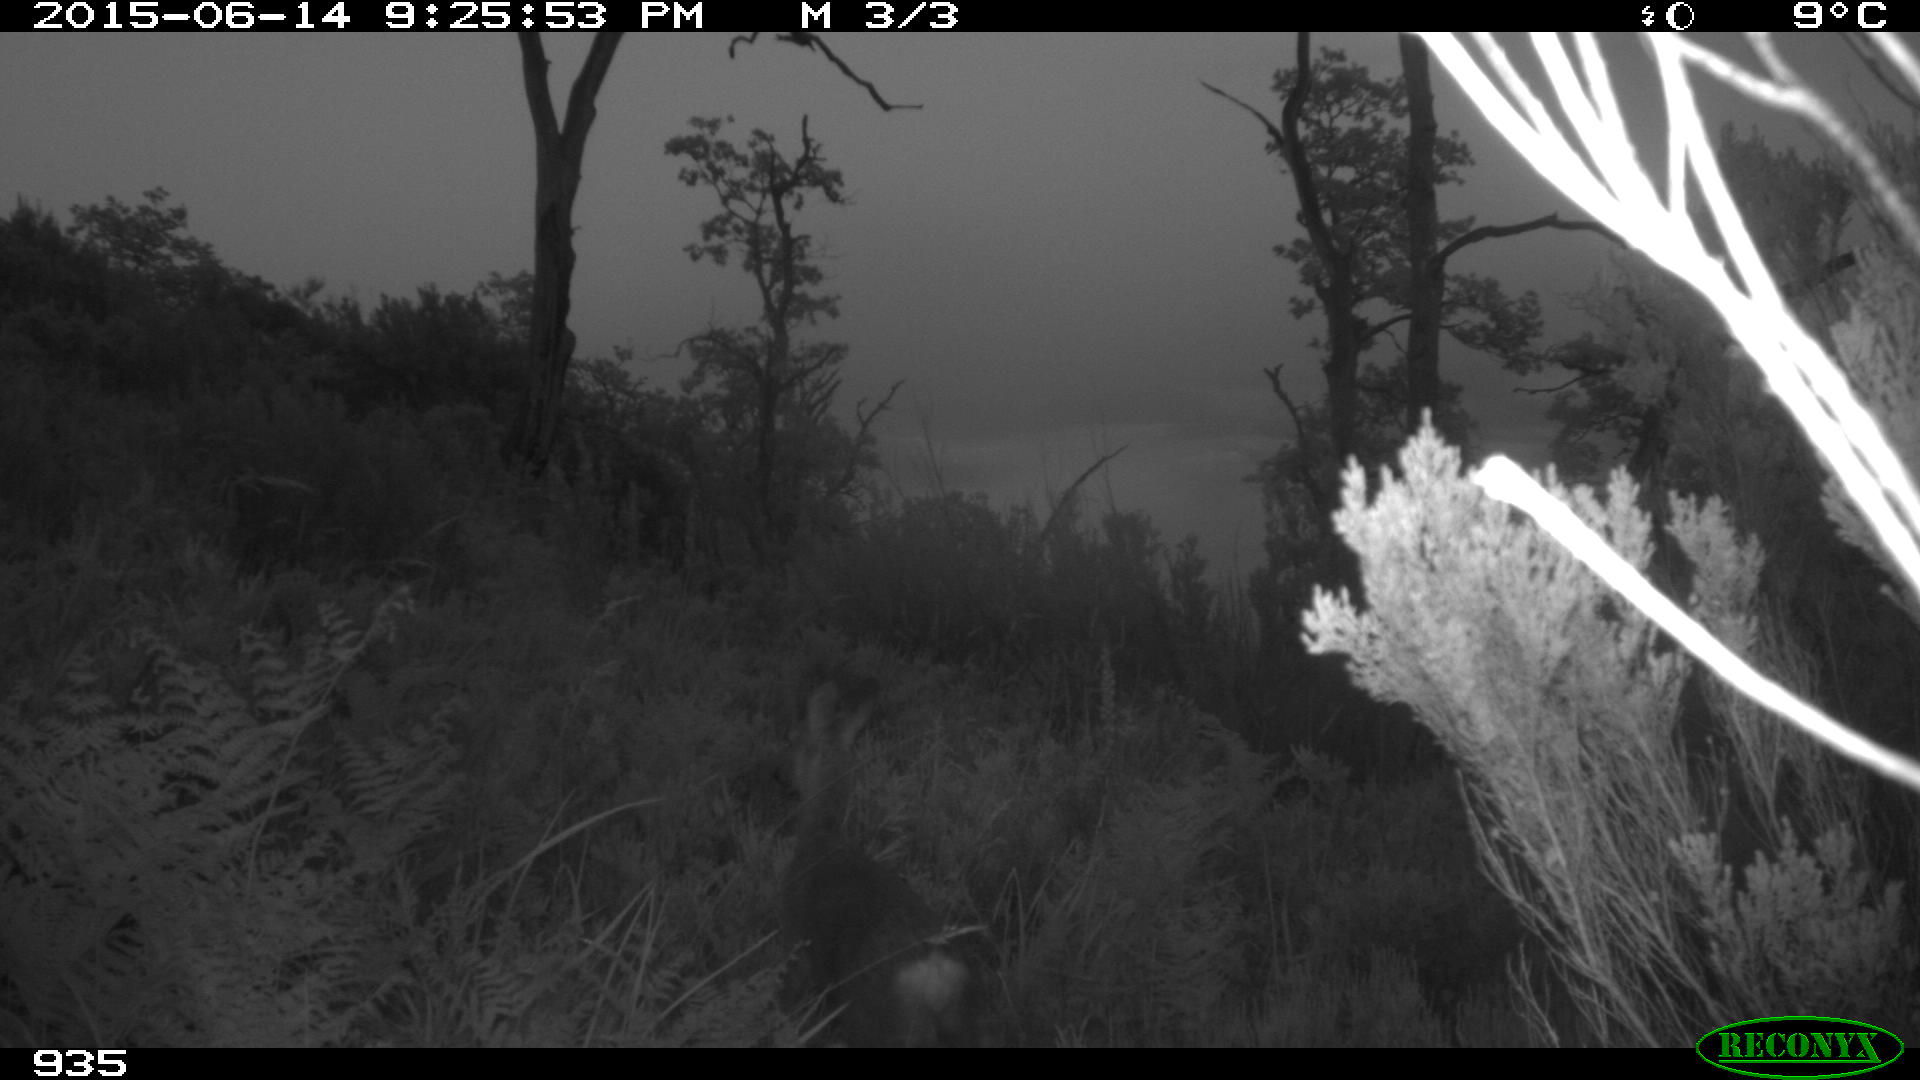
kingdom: Animalia
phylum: Chordata
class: Mammalia
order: Artiodactyla
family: Cervidae
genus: Capreolus
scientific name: Capreolus capreolus
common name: Western roe deer
